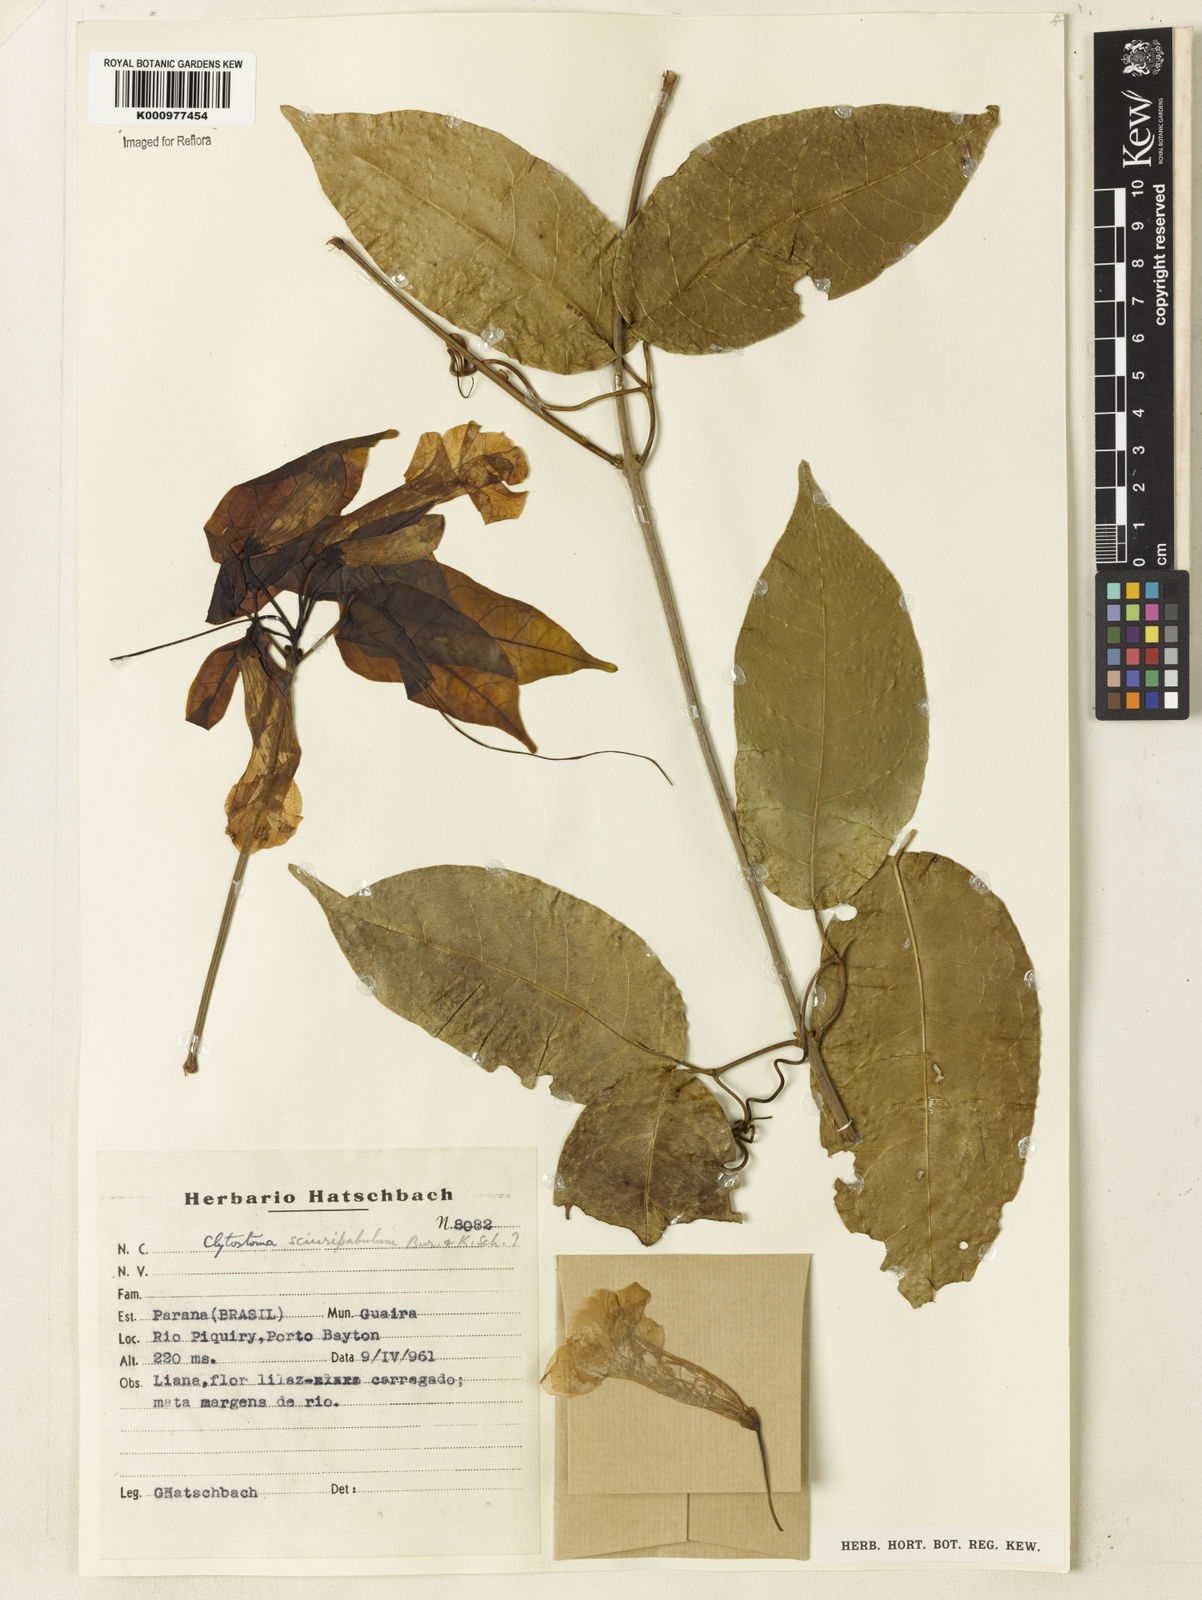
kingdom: Plantae
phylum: Tracheophyta
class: Magnoliopsida
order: Lamiales
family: Bignoniaceae
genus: Bignonia
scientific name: Bignonia
